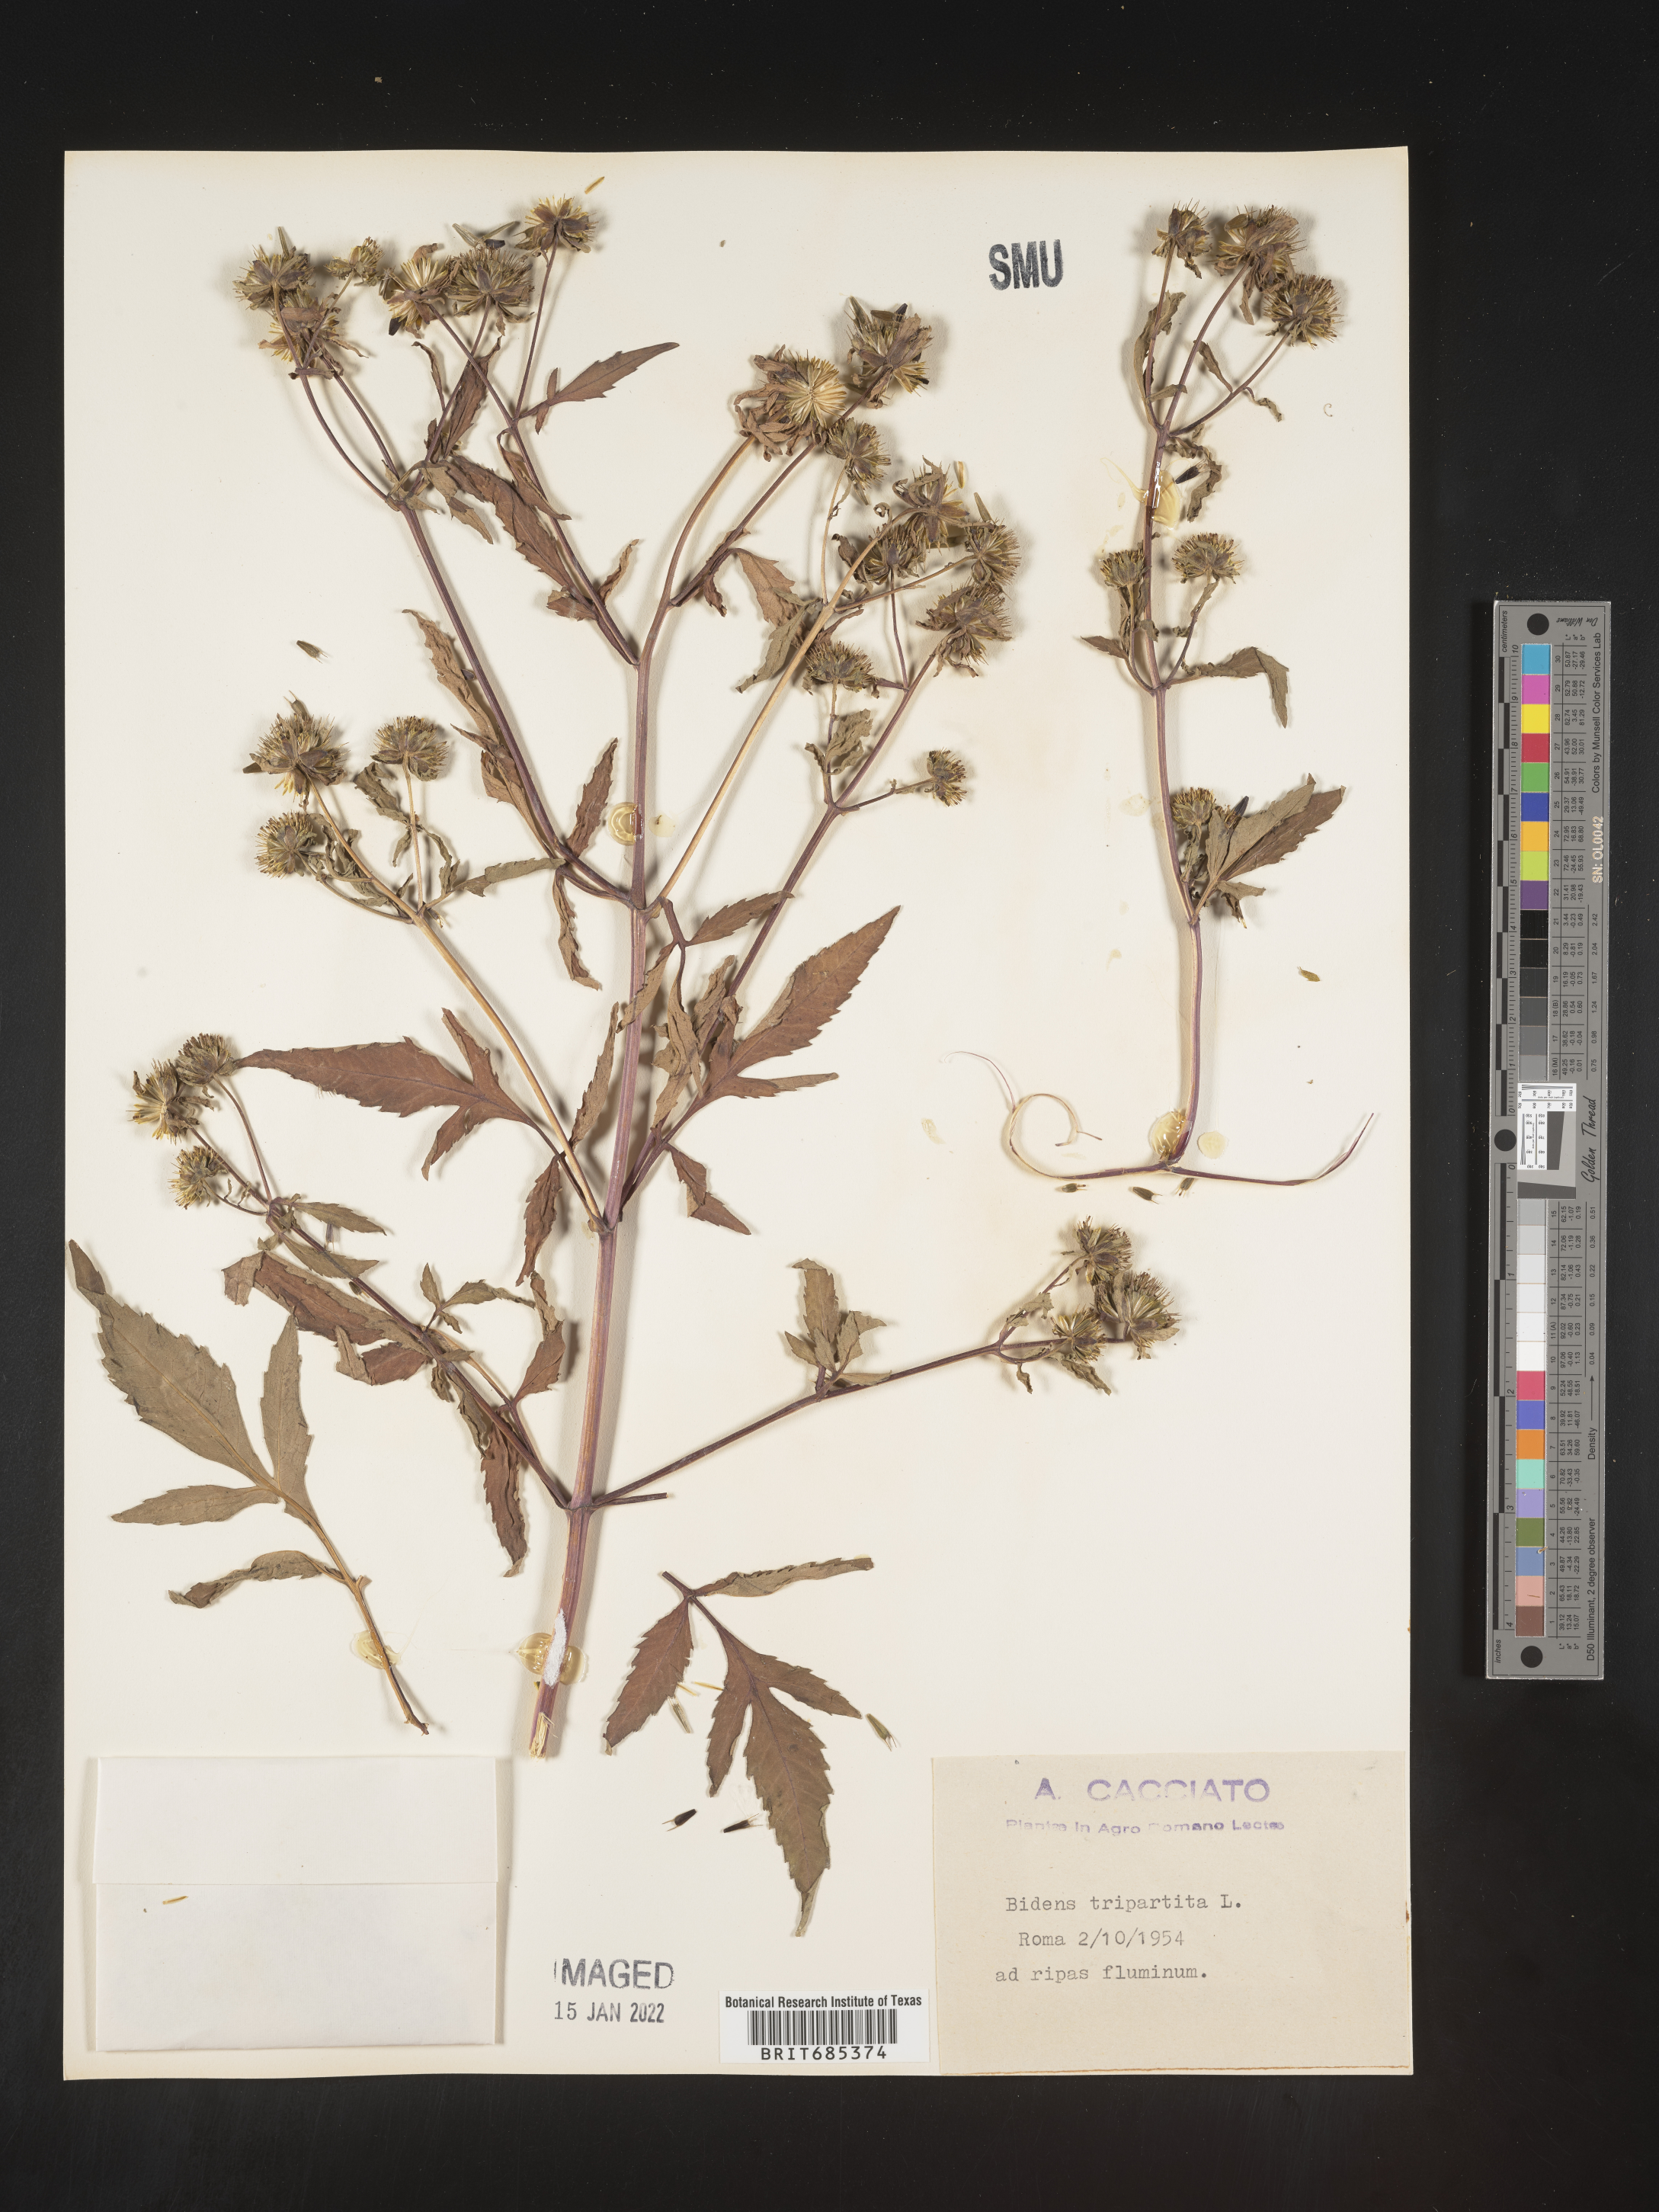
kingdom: Plantae
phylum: Tracheophyta
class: Magnoliopsida
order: Asterales
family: Asteraceae
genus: Bidens
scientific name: Bidens
